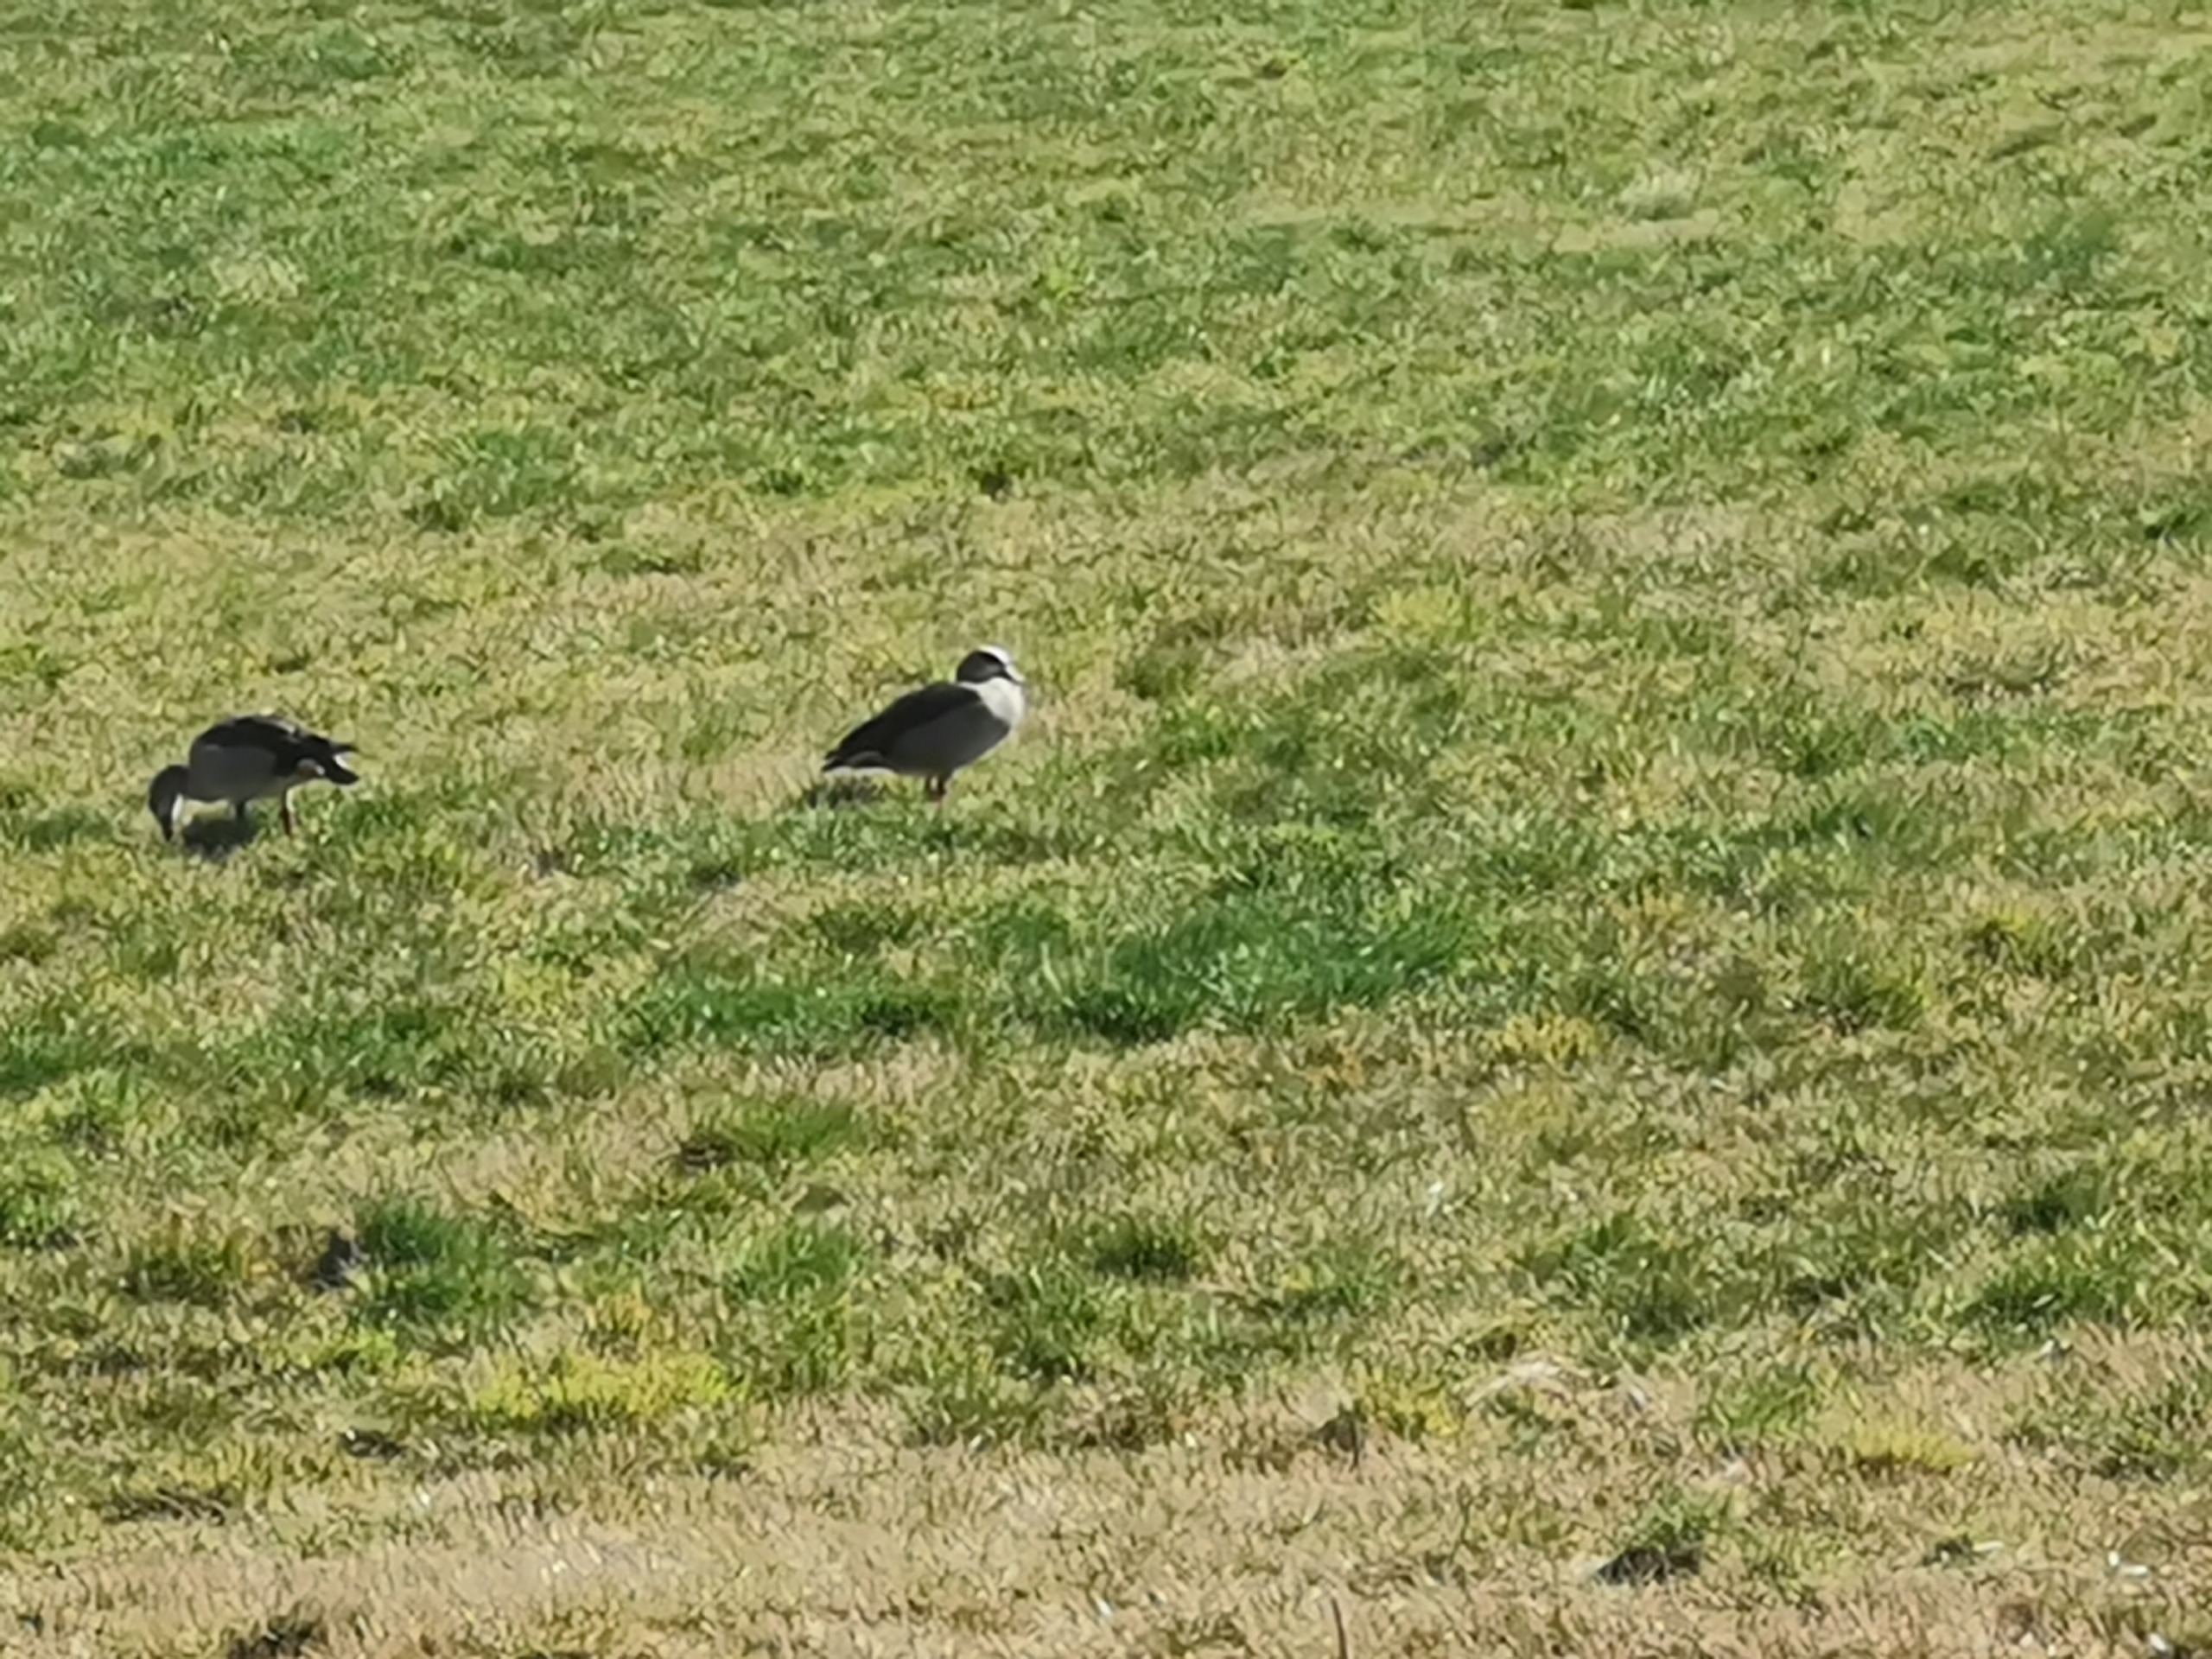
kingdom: Animalia
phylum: Chordata
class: Aves
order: Anseriformes
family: Anatidae
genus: Alopochen
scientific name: Alopochen aegyptiaca
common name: Nilgås
